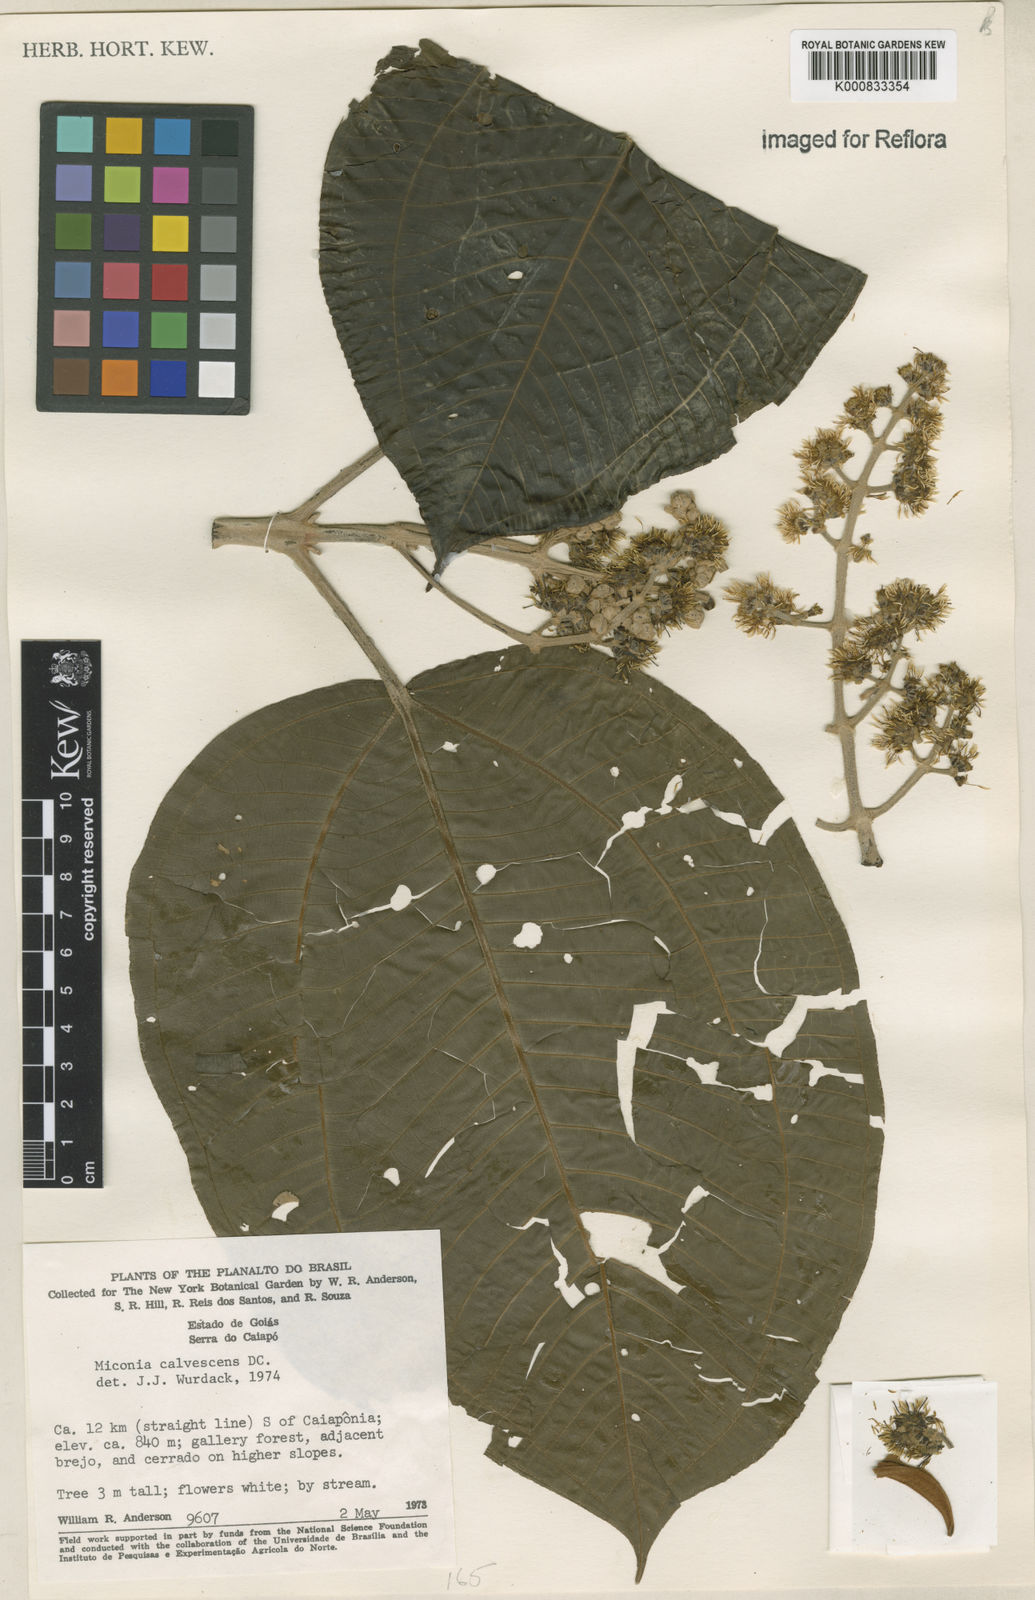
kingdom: Plantae
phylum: Tracheophyta
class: Magnoliopsida
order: Myrtales
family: Melastomataceae
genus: Miconia
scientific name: Miconia calvescens
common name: Purple plague
